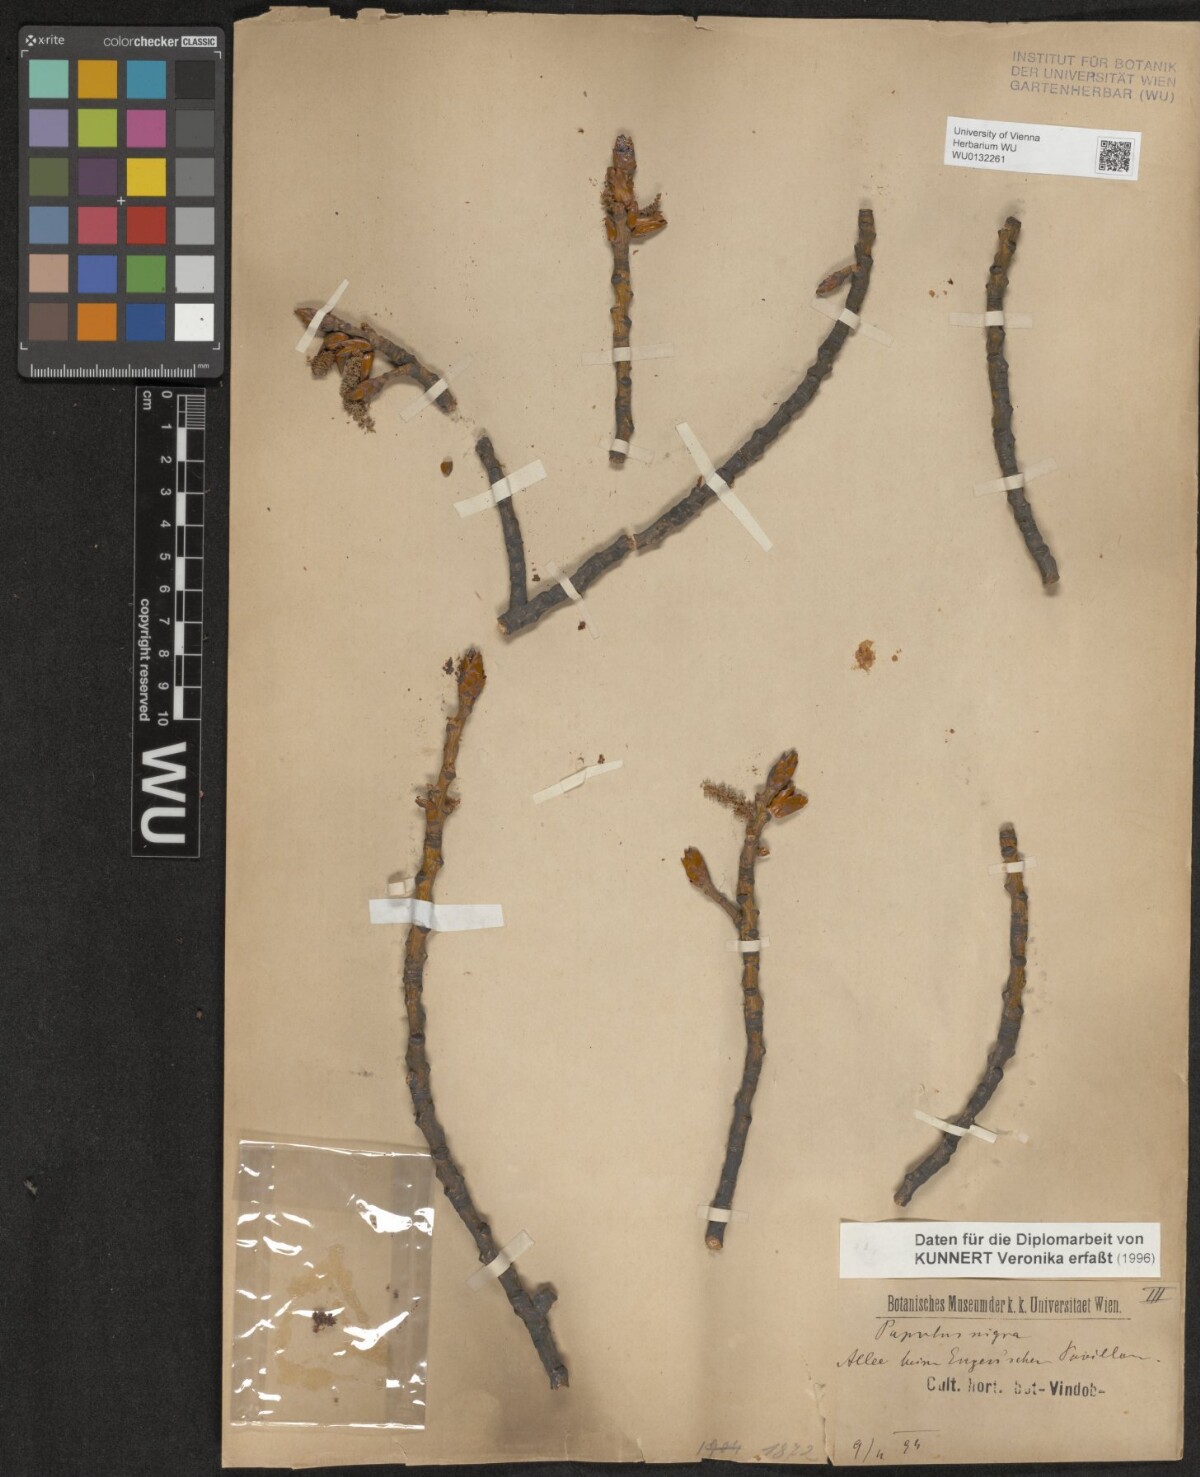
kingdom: Plantae
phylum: Tracheophyta
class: Magnoliopsida
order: Malpighiales
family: Salicaceae
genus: Populus
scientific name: Populus nigra
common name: Black poplar
